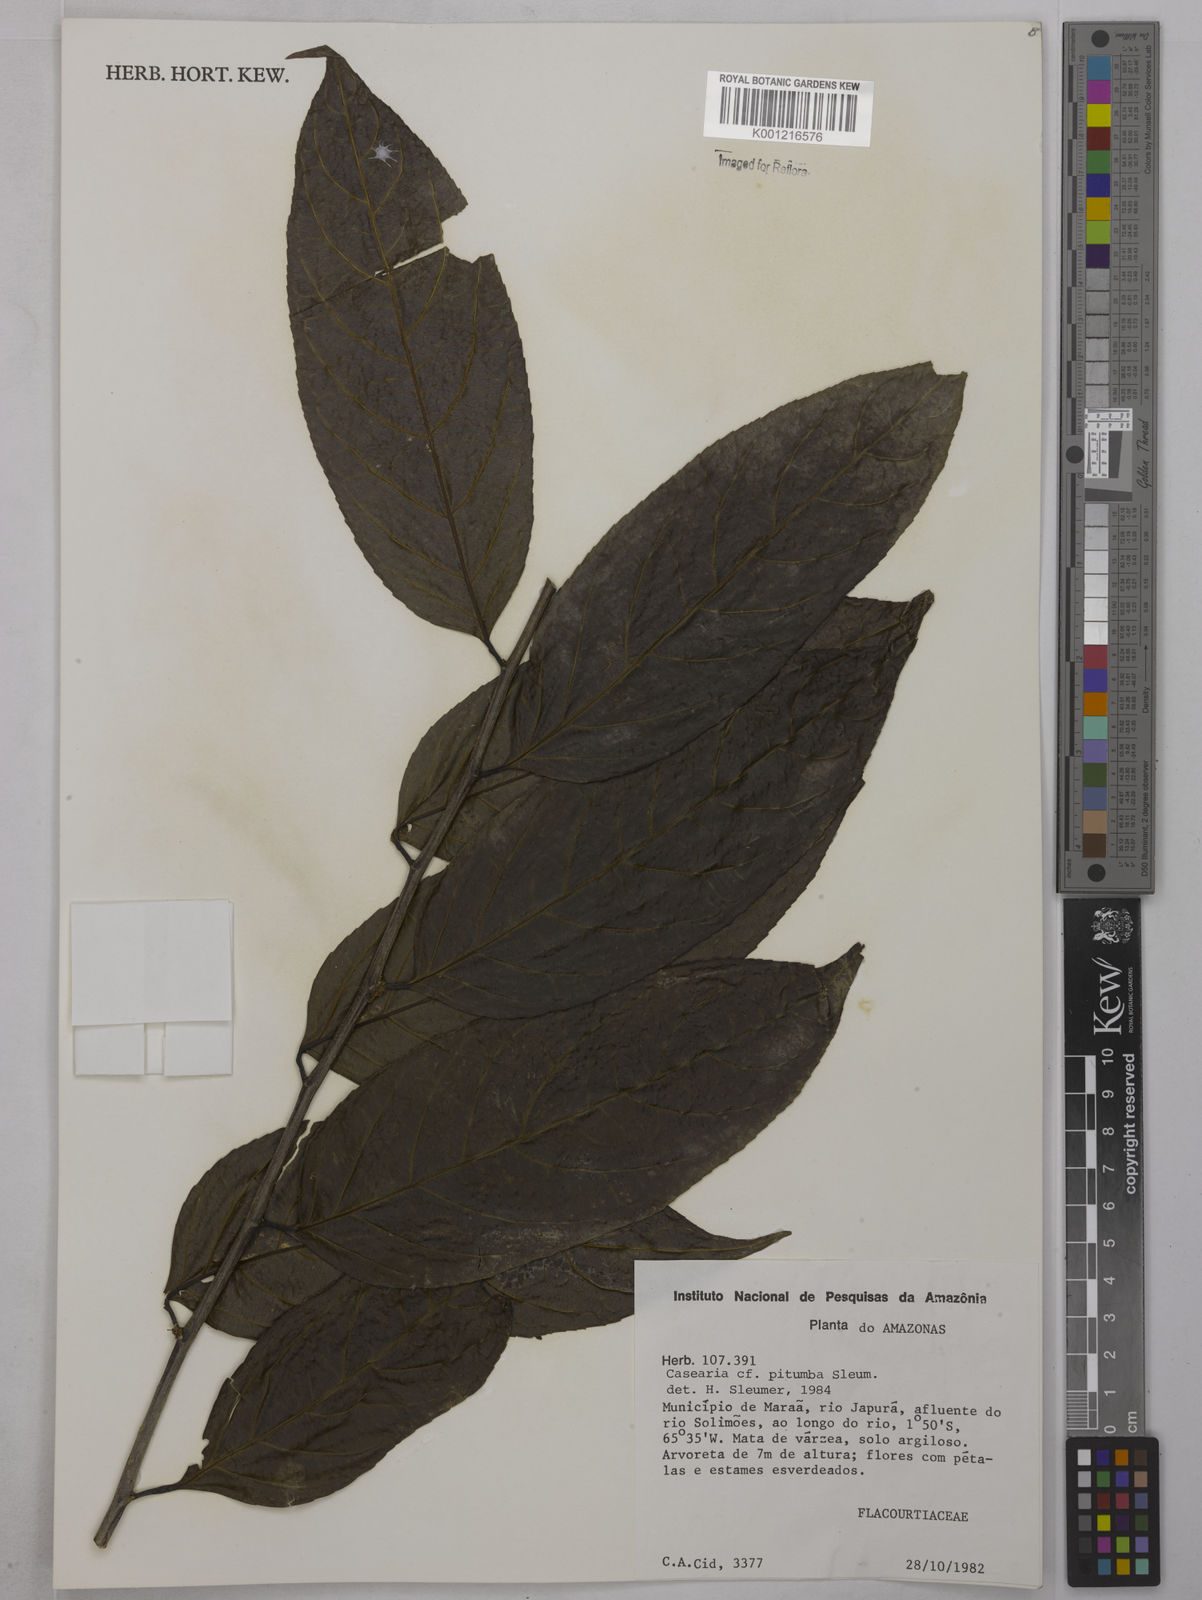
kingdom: Plantae
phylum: Tracheophyta
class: Magnoliopsida
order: Malpighiales
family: Salicaceae
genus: Casearia
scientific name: Casearia pitumba
